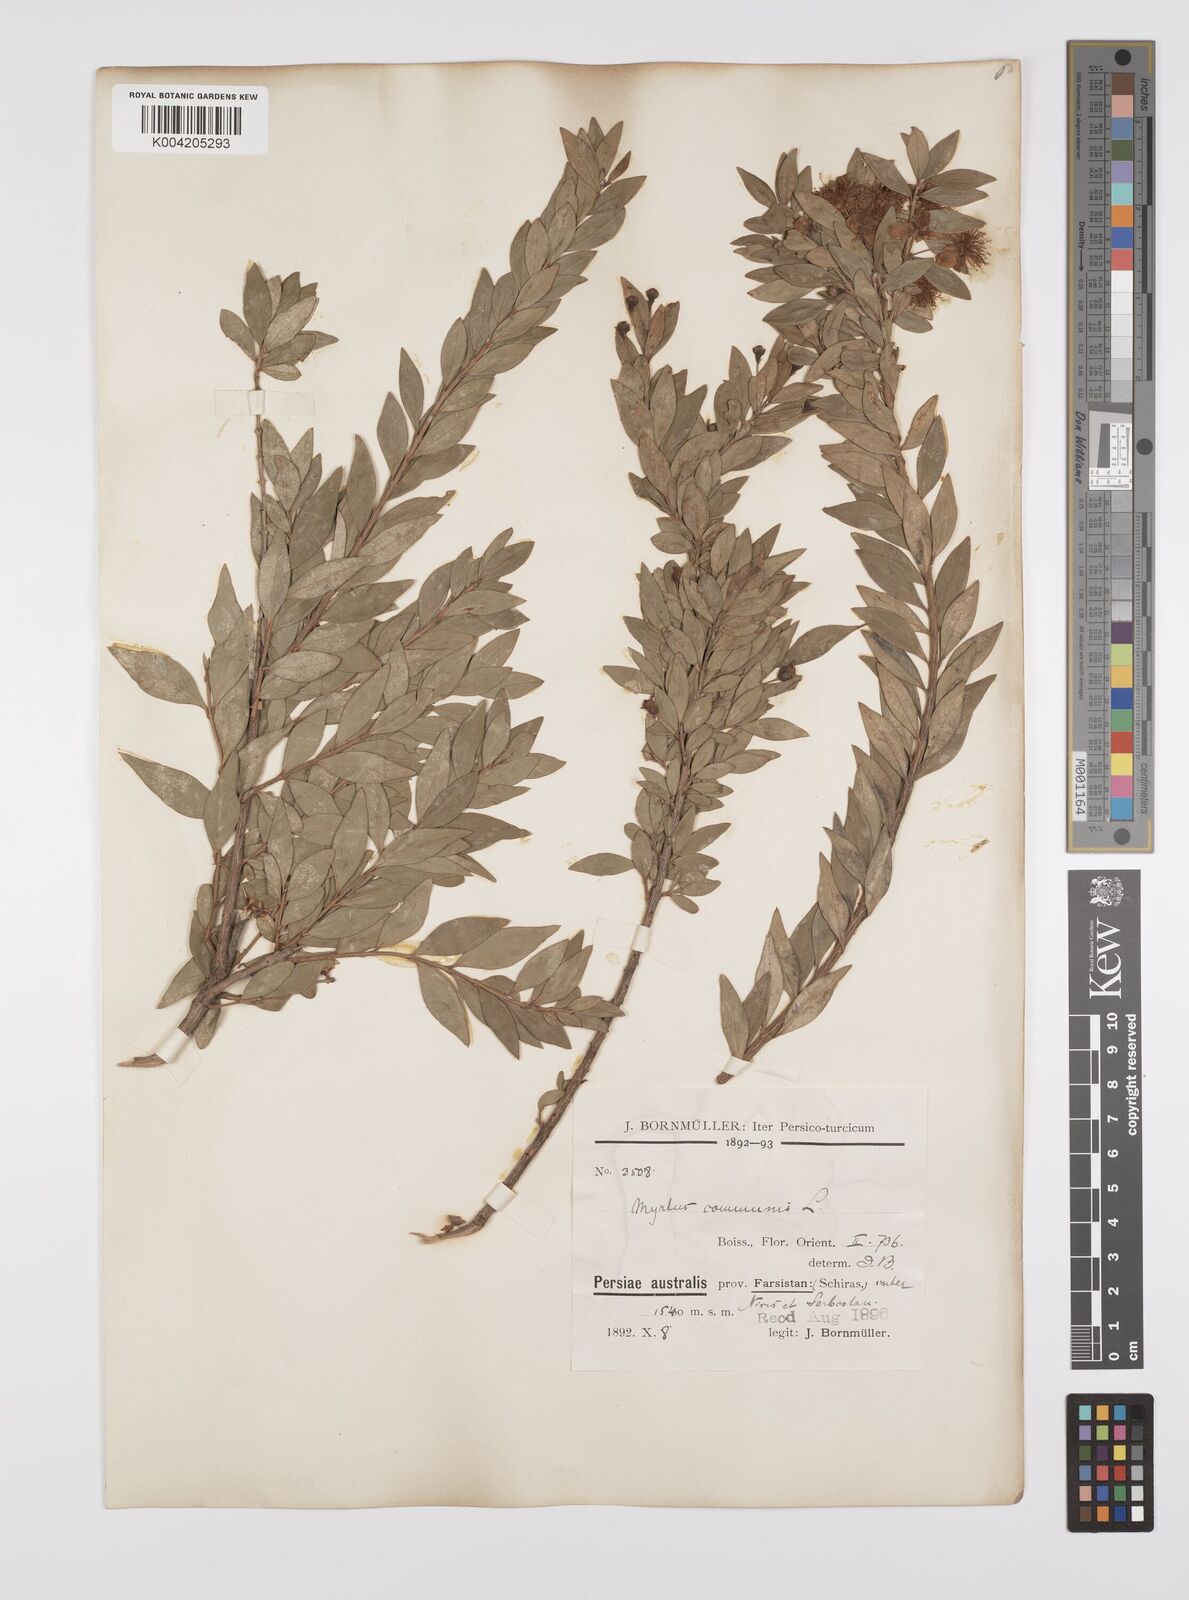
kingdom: Plantae
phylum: Tracheophyta
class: Magnoliopsida
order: Myrtales
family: Myrtaceae
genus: Myrtus
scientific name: Myrtus communis
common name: Myrtle
